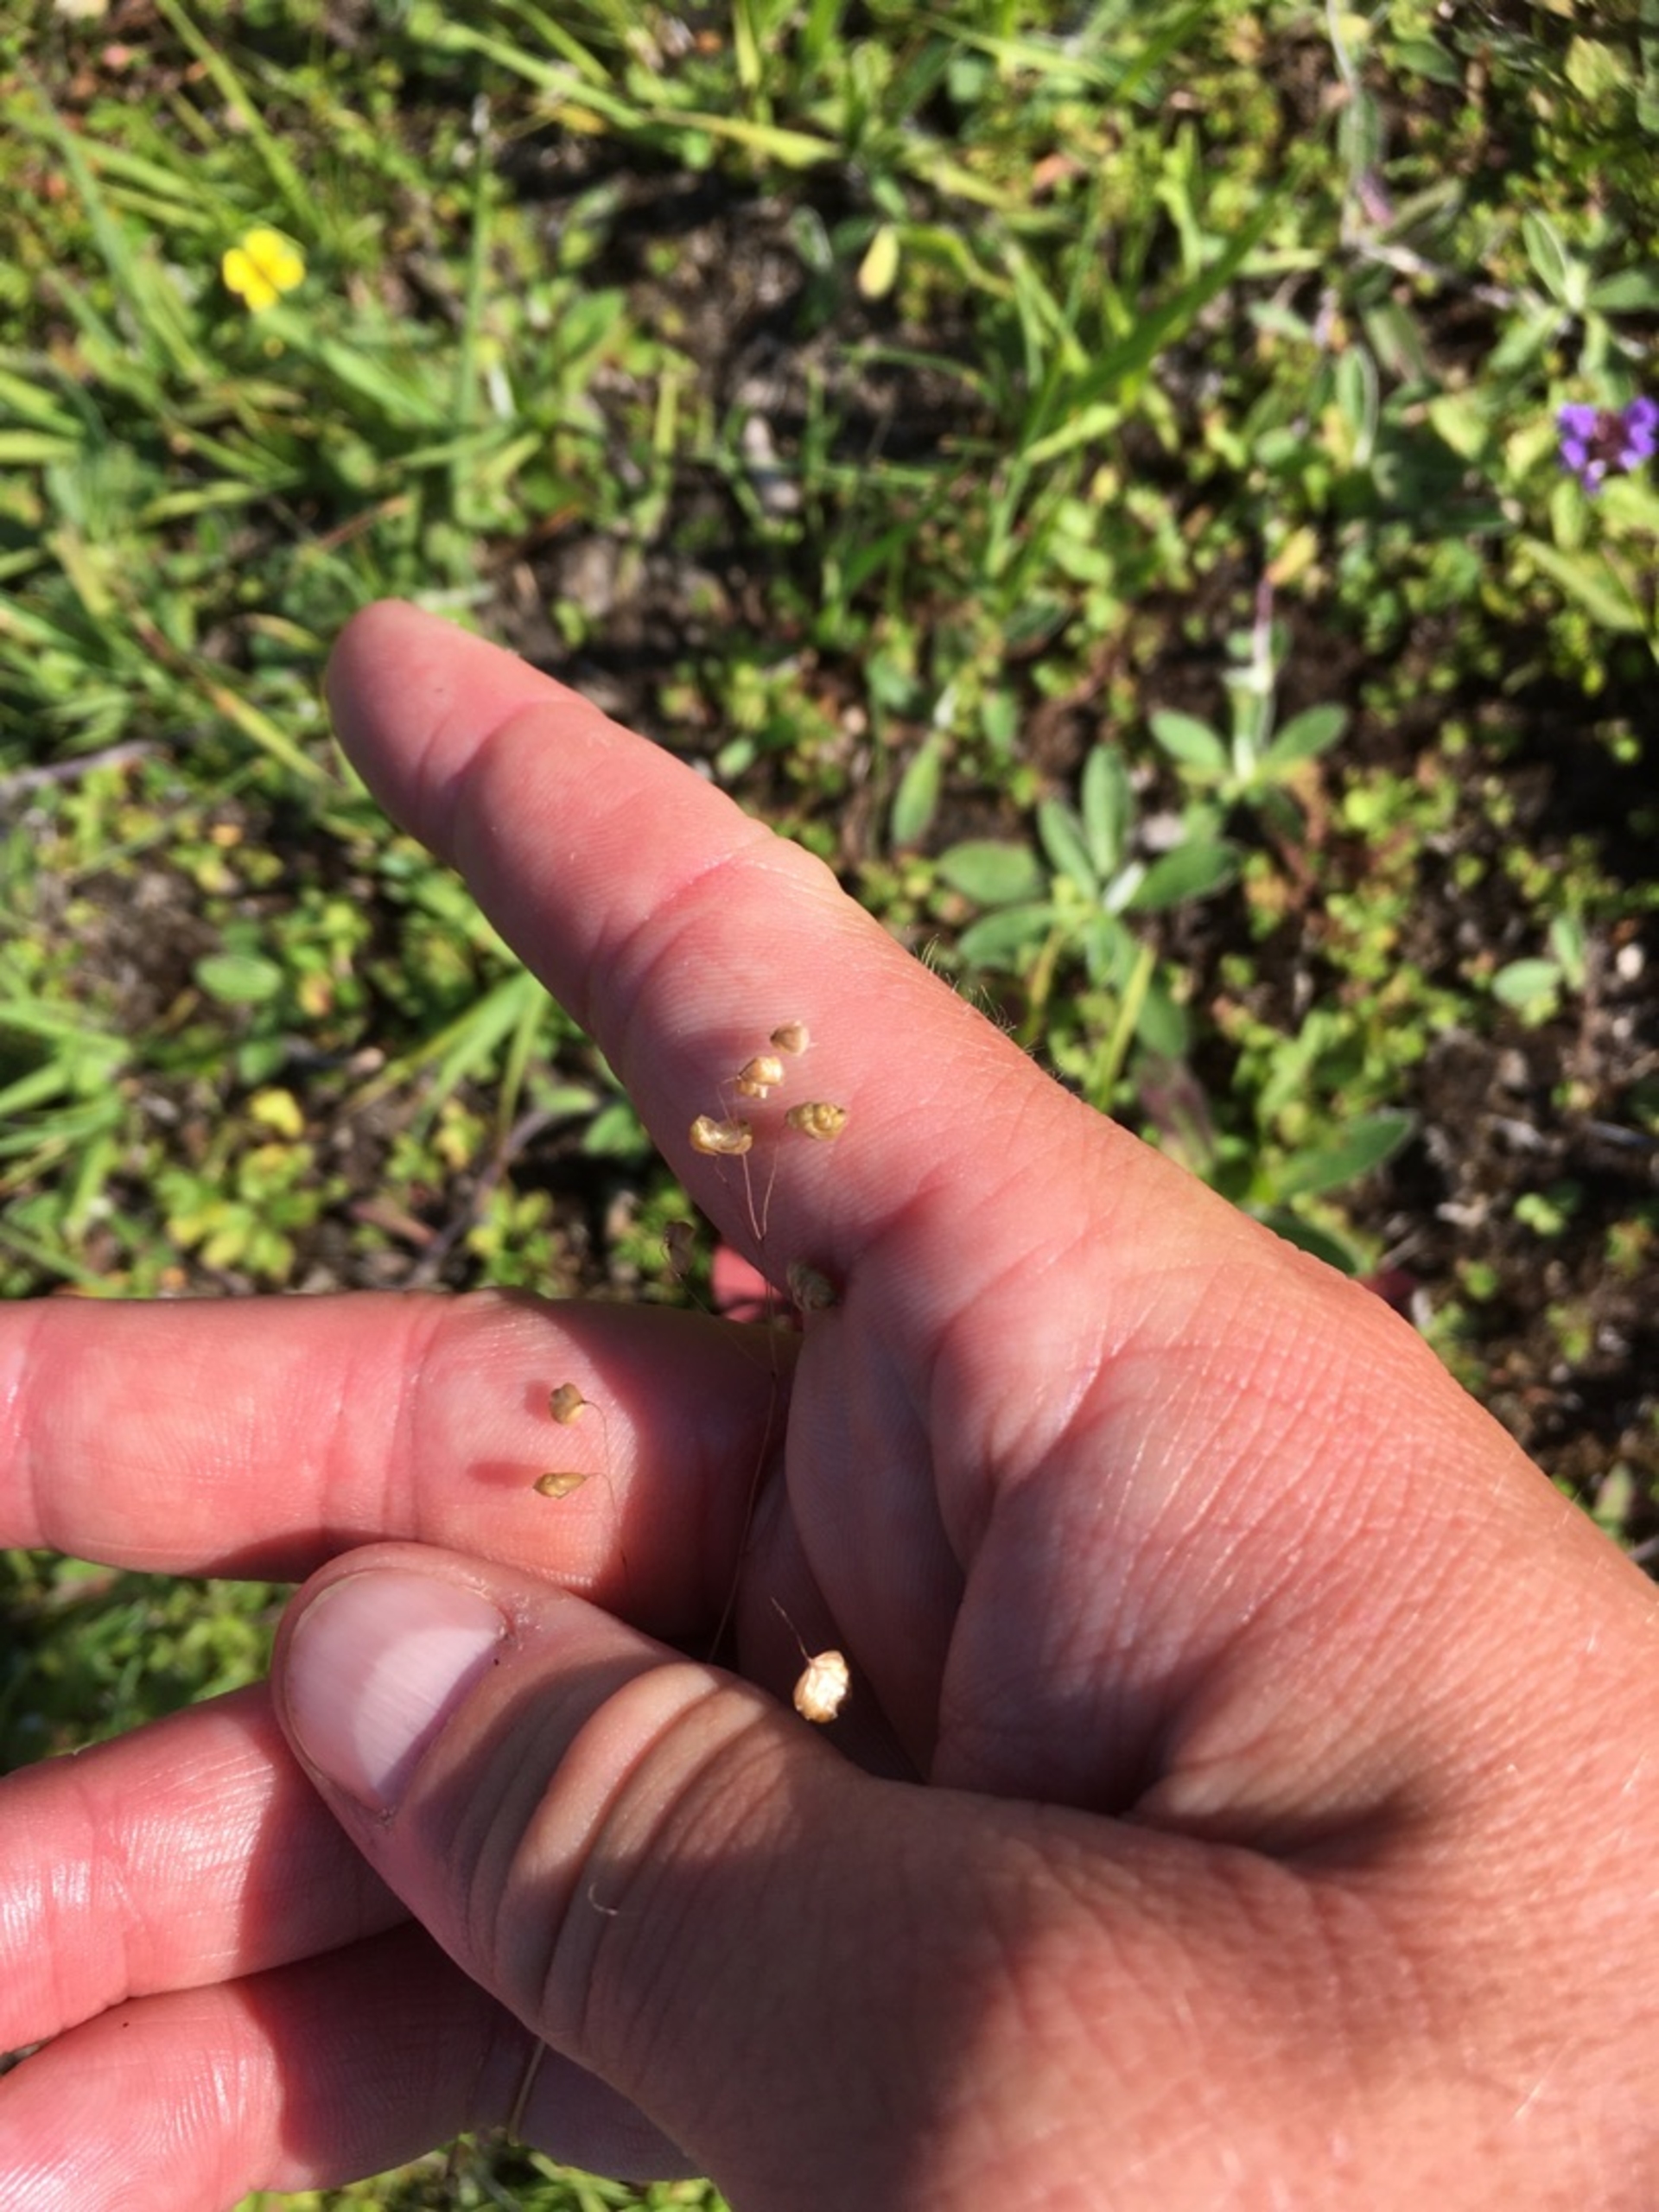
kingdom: Plantae
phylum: Tracheophyta
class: Liliopsida
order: Poales
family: Poaceae
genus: Briza
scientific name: Briza media
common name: Hjertegræs
